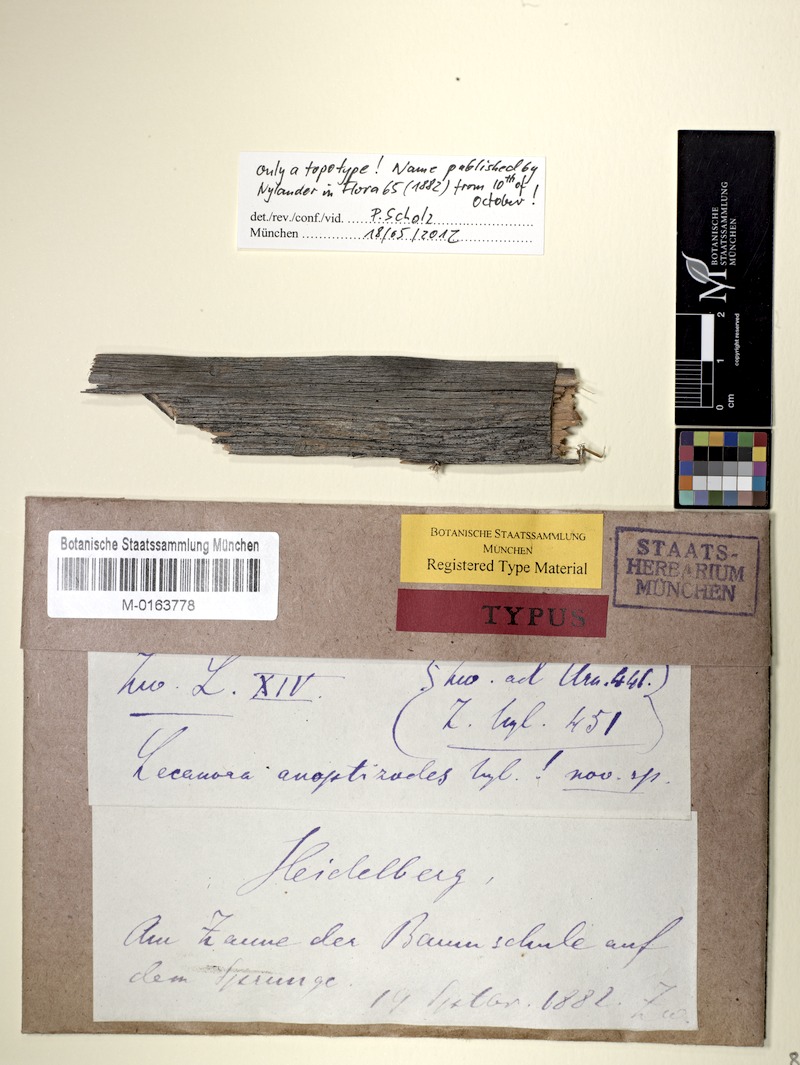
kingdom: Fungi
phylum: Ascomycota
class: Lecanoromycetes
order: Lecanorales
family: Lecanoraceae
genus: Lecanora
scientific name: Lecanora anoptizodes
